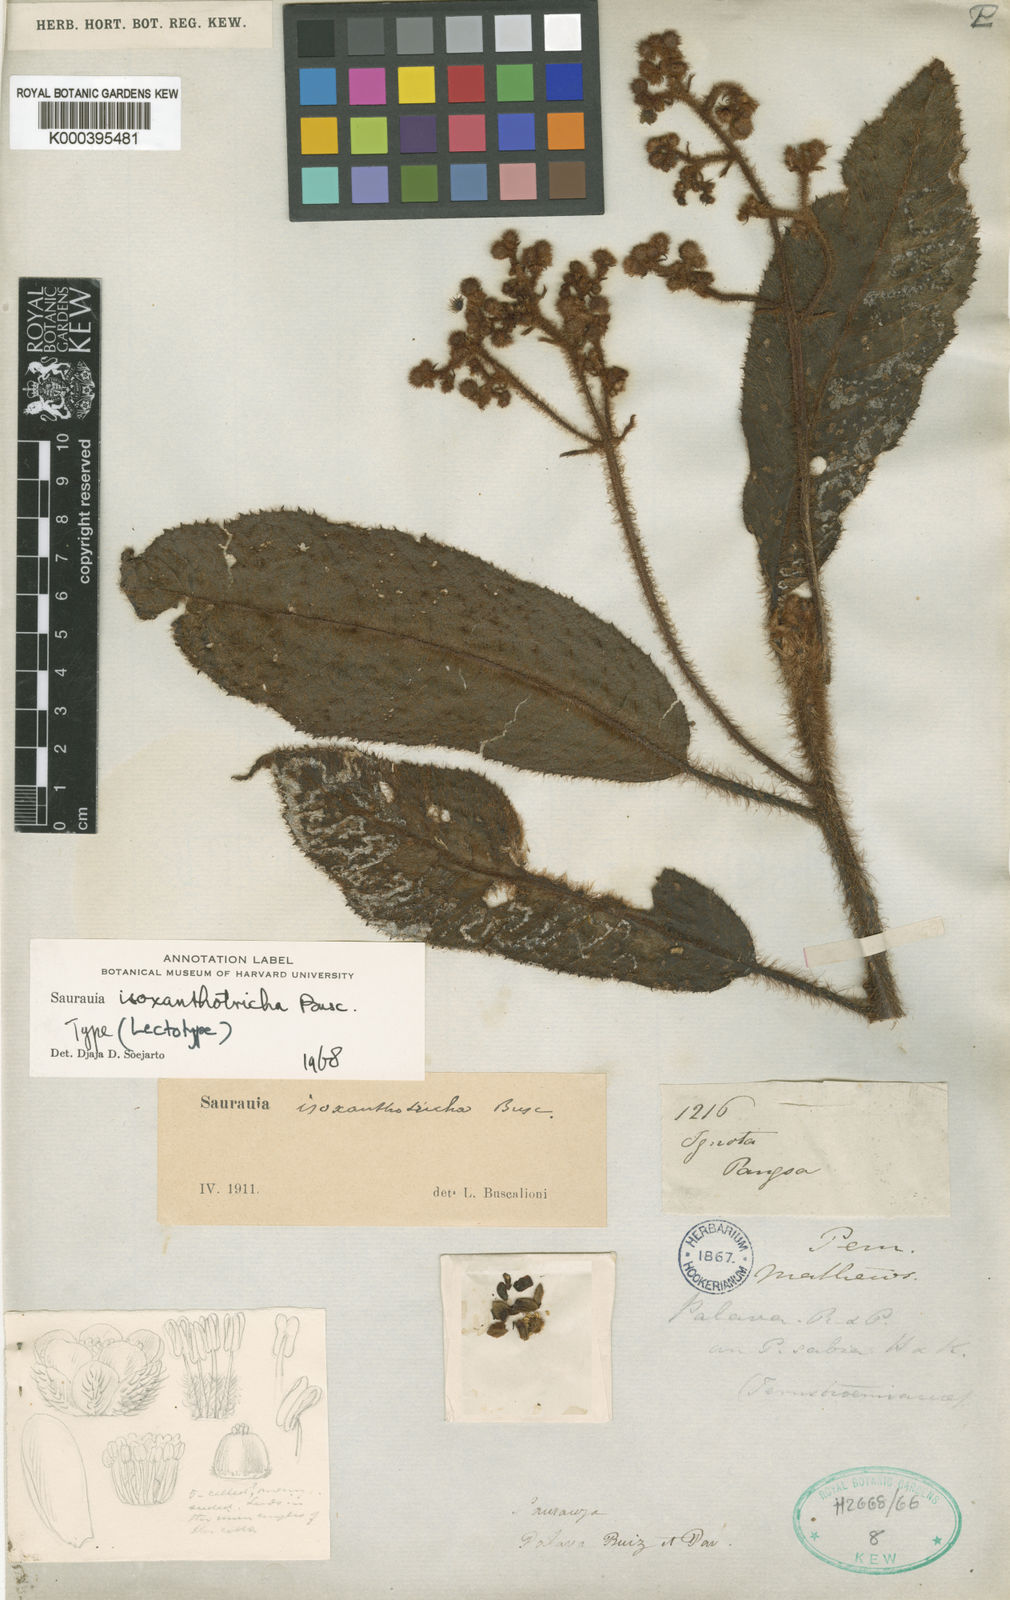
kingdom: Plantae
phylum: Tracheophyta
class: Magnoliopsida
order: Ericales
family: Actinidiaceae
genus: Saurauia
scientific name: Saurauia isoxanthotricha
